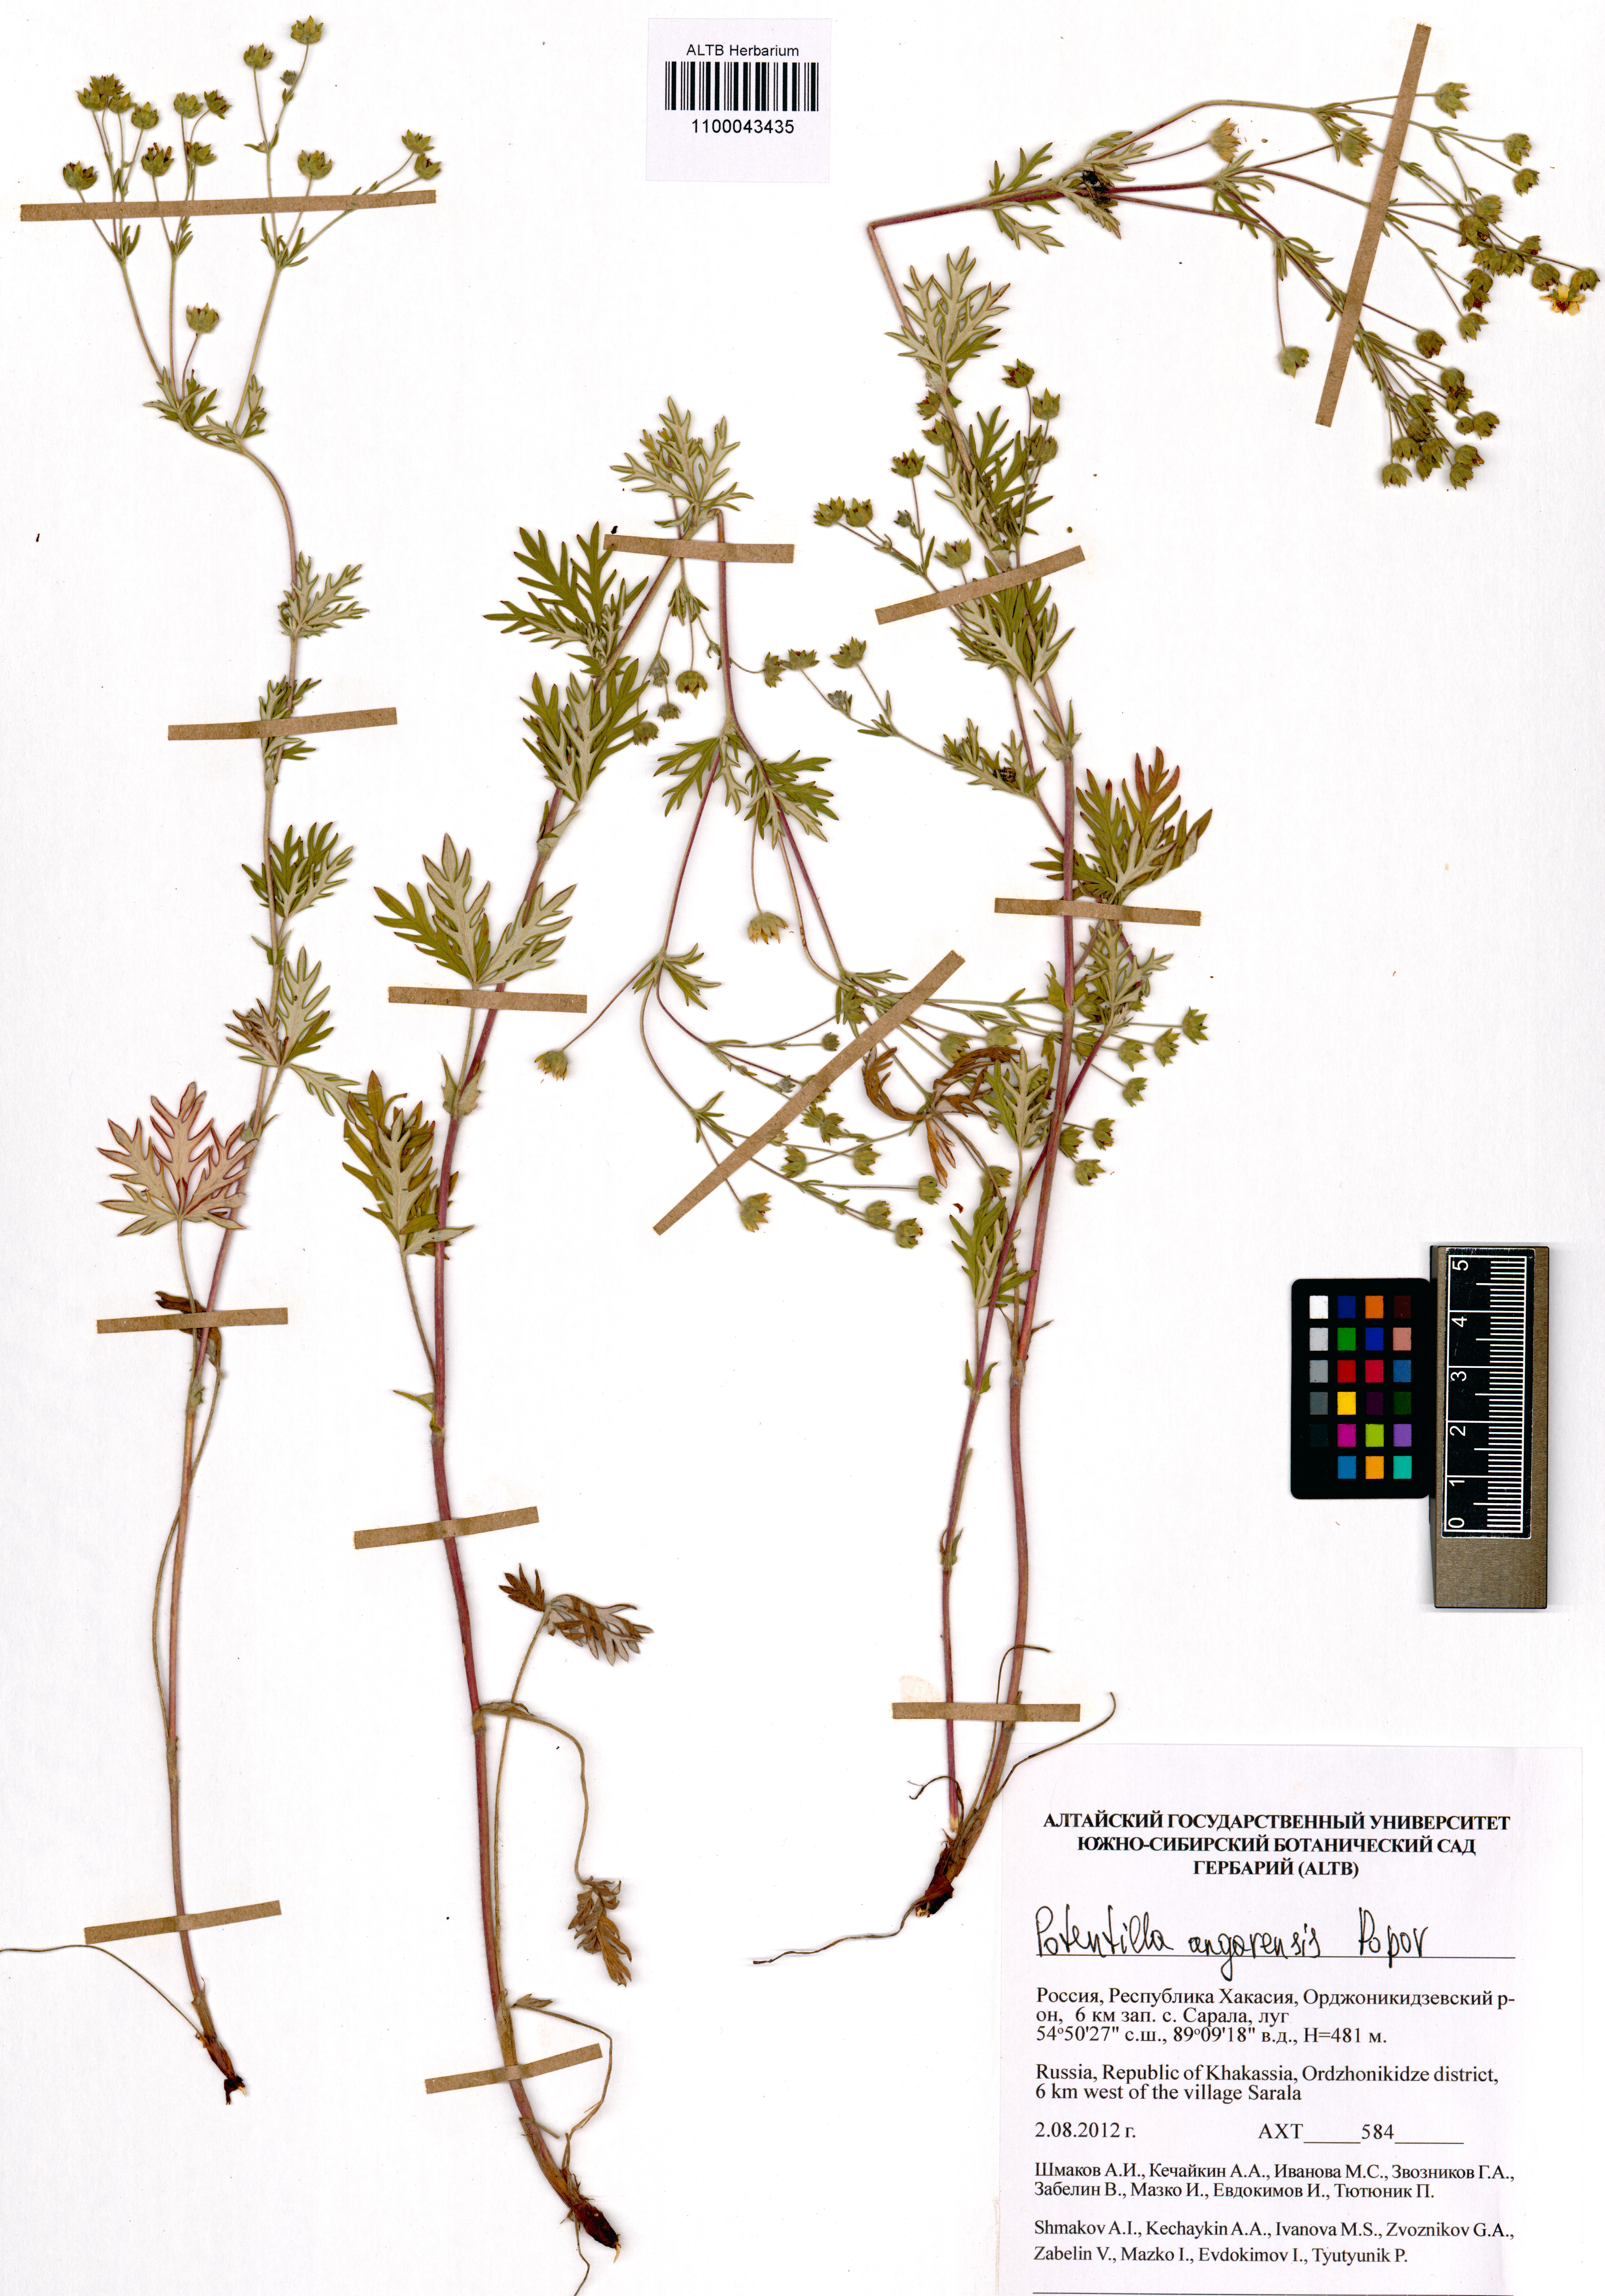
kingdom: Plantae
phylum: Tracheophyta
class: Magnoliopsida
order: Rosales
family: Rosaceae
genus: Potentilla
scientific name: Potentilla angarensis
